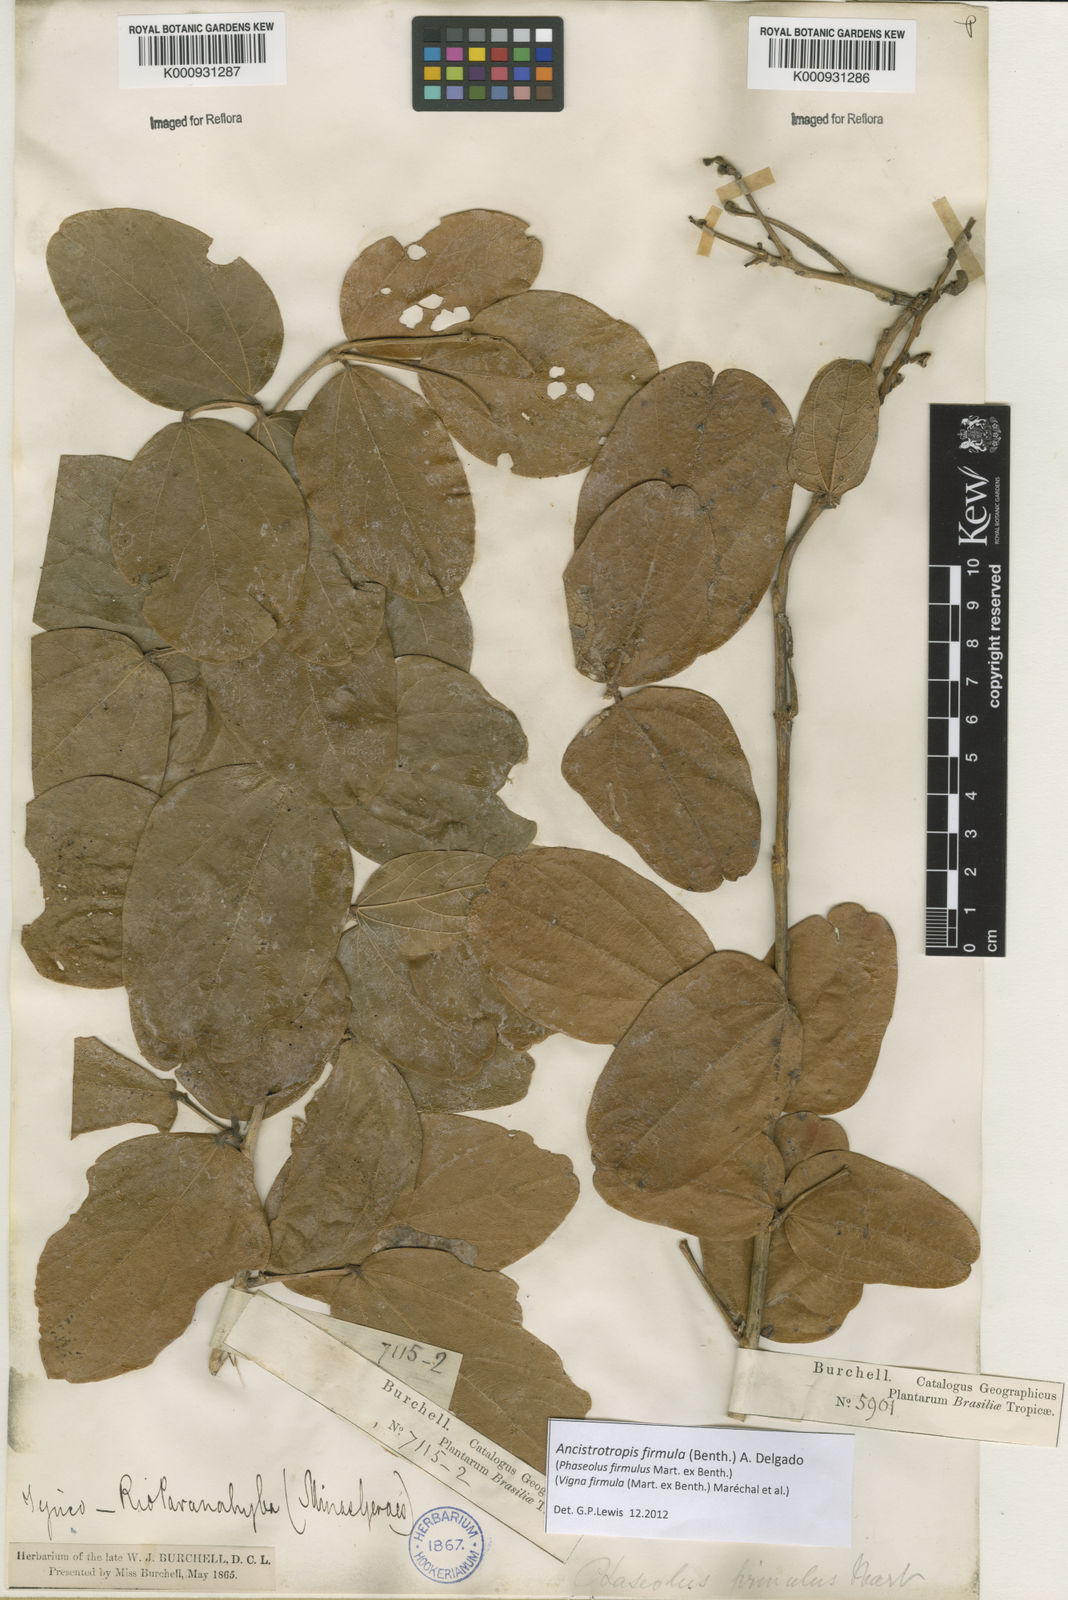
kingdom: Plantae
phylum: Tracheophyta
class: Magnoliopsida
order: Fabales
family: Fabaceae
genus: Ancistrotropis
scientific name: Ancistrotropis firmula
